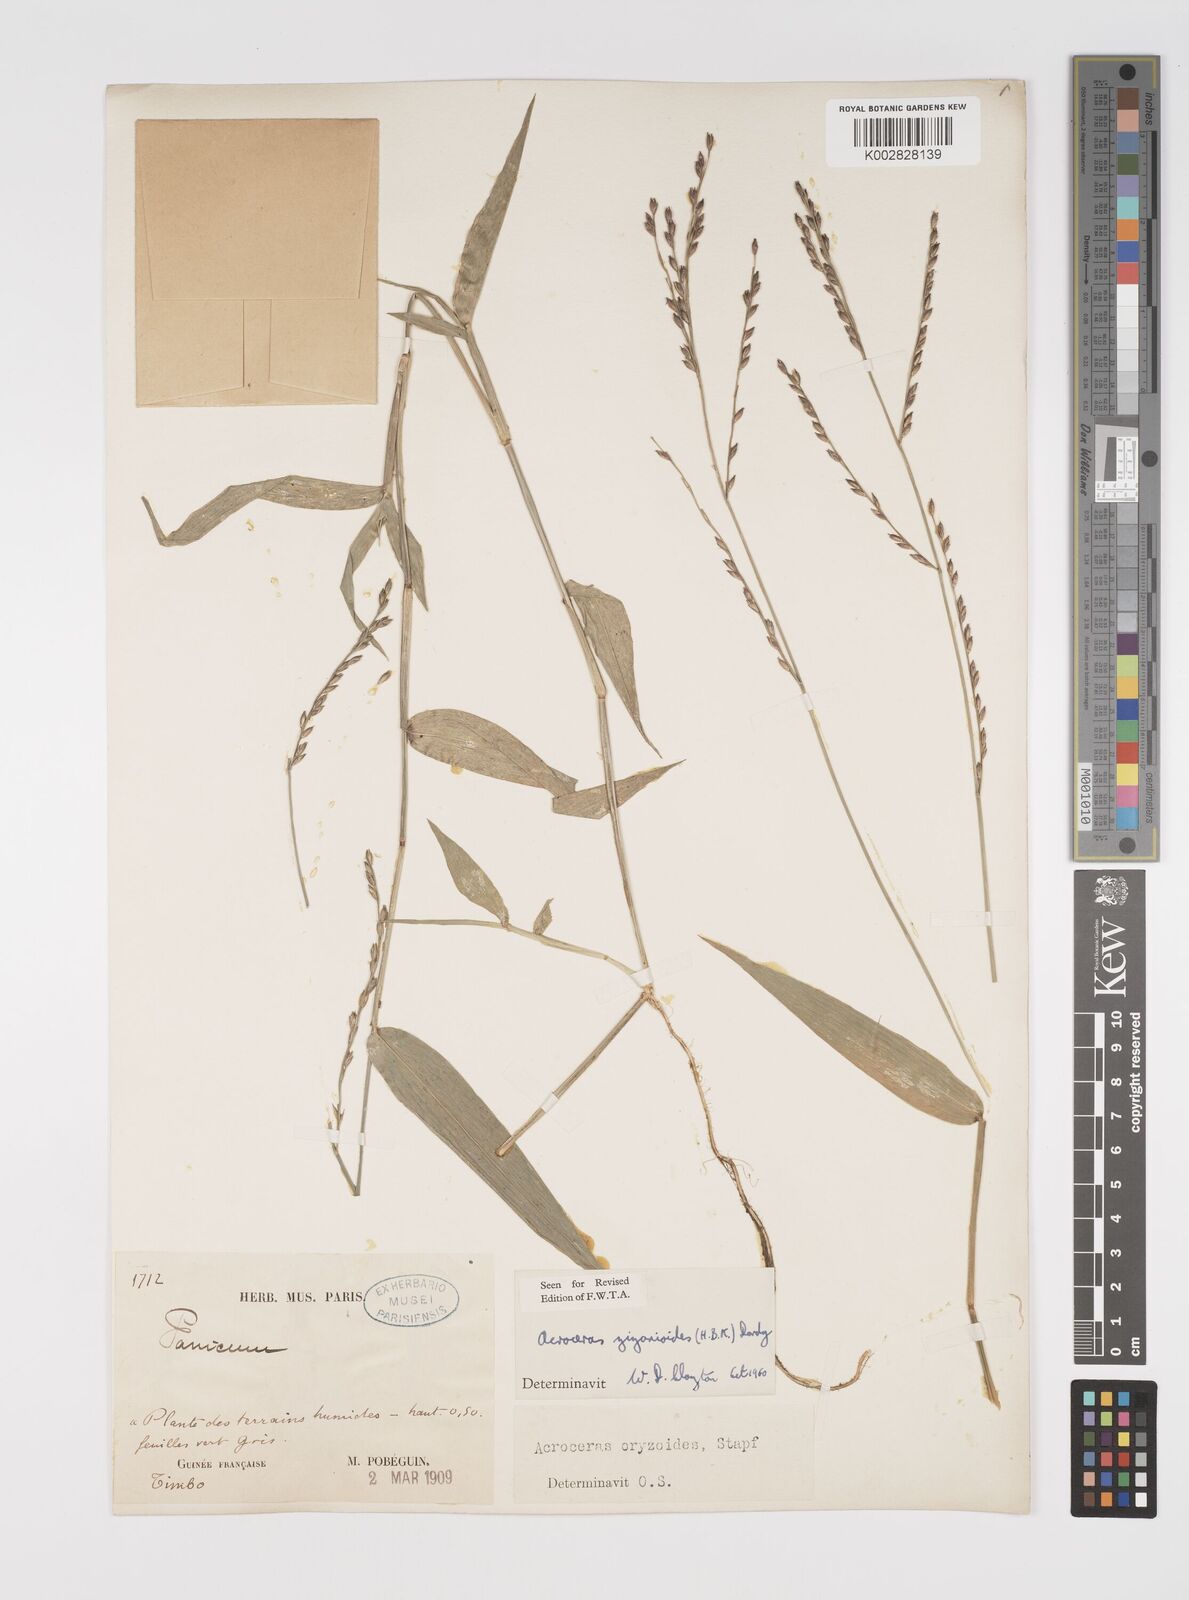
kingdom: Plantae
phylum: Tracheophyta
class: Liliopsida
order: Poales
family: Poaceae
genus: Acroceras
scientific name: Acroceras zizanioides
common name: Oat grass
